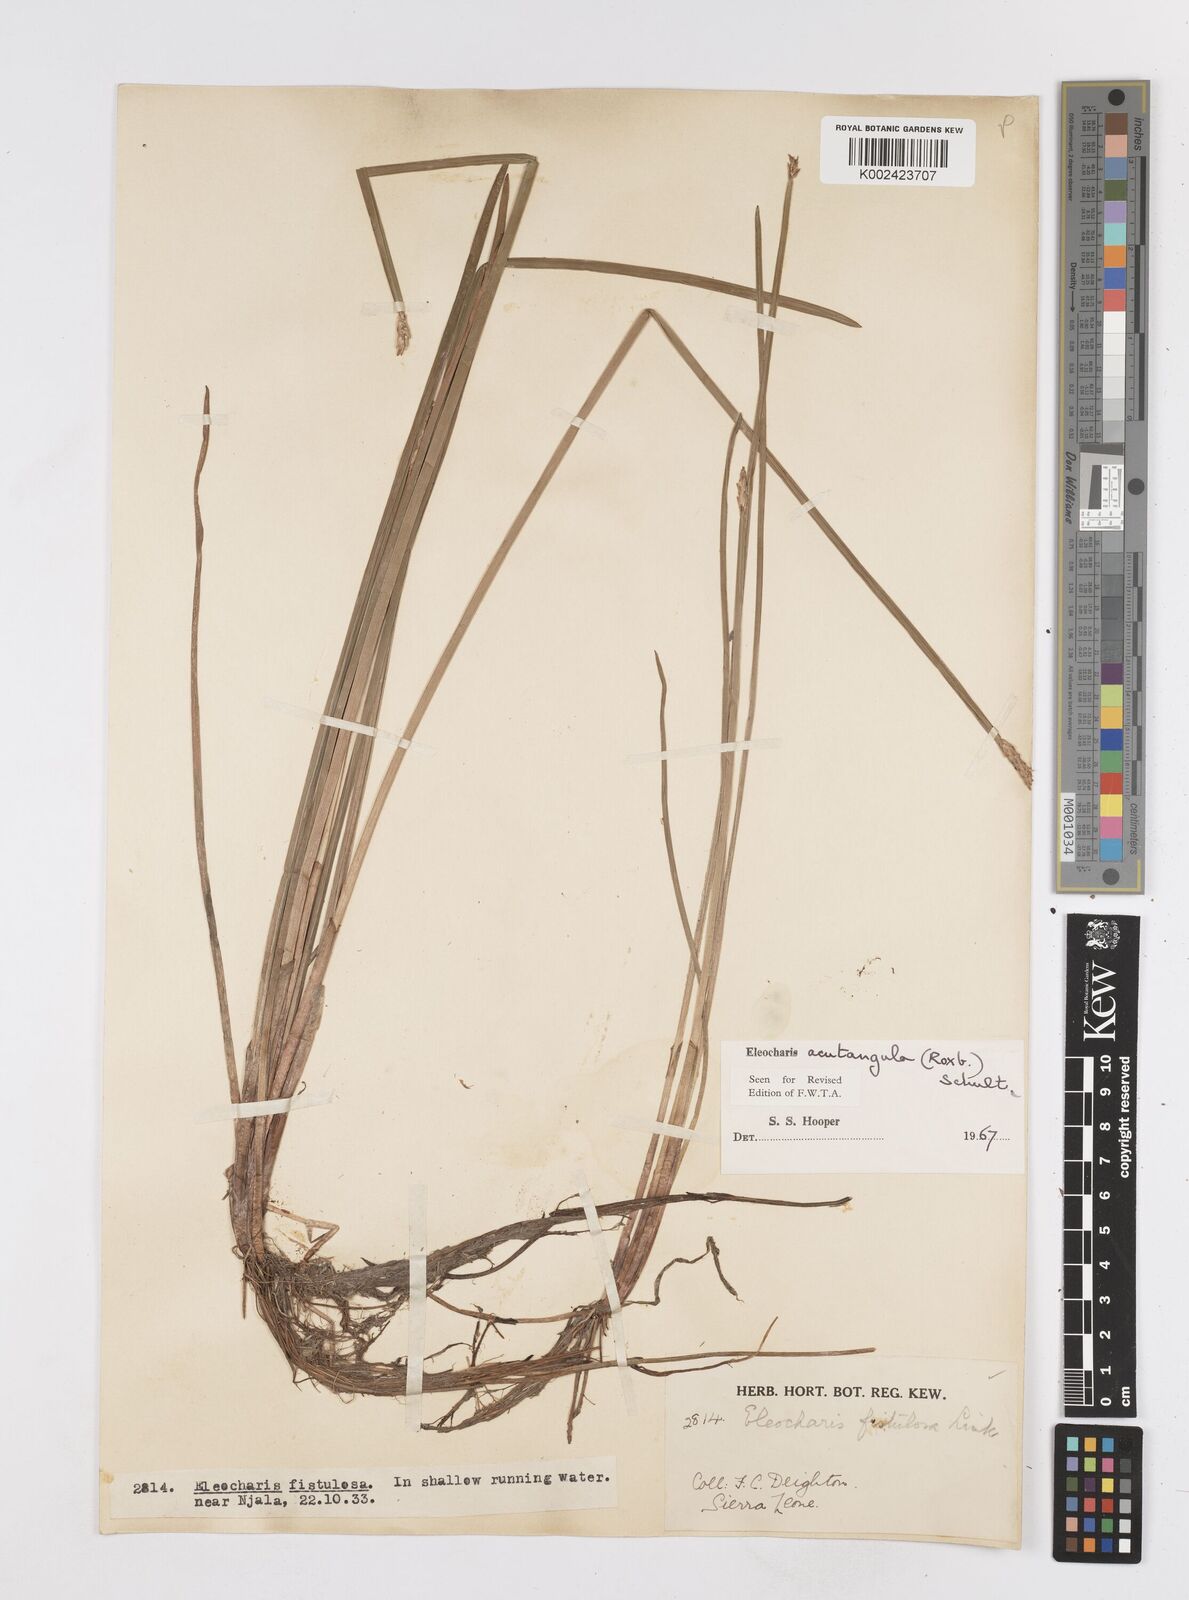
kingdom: Plantae
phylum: Tracheophyta
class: Liliopsida
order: Poales
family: Cyperaceae
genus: Eleocharis
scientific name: Eleocharis acutangula
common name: Acute spikerush
